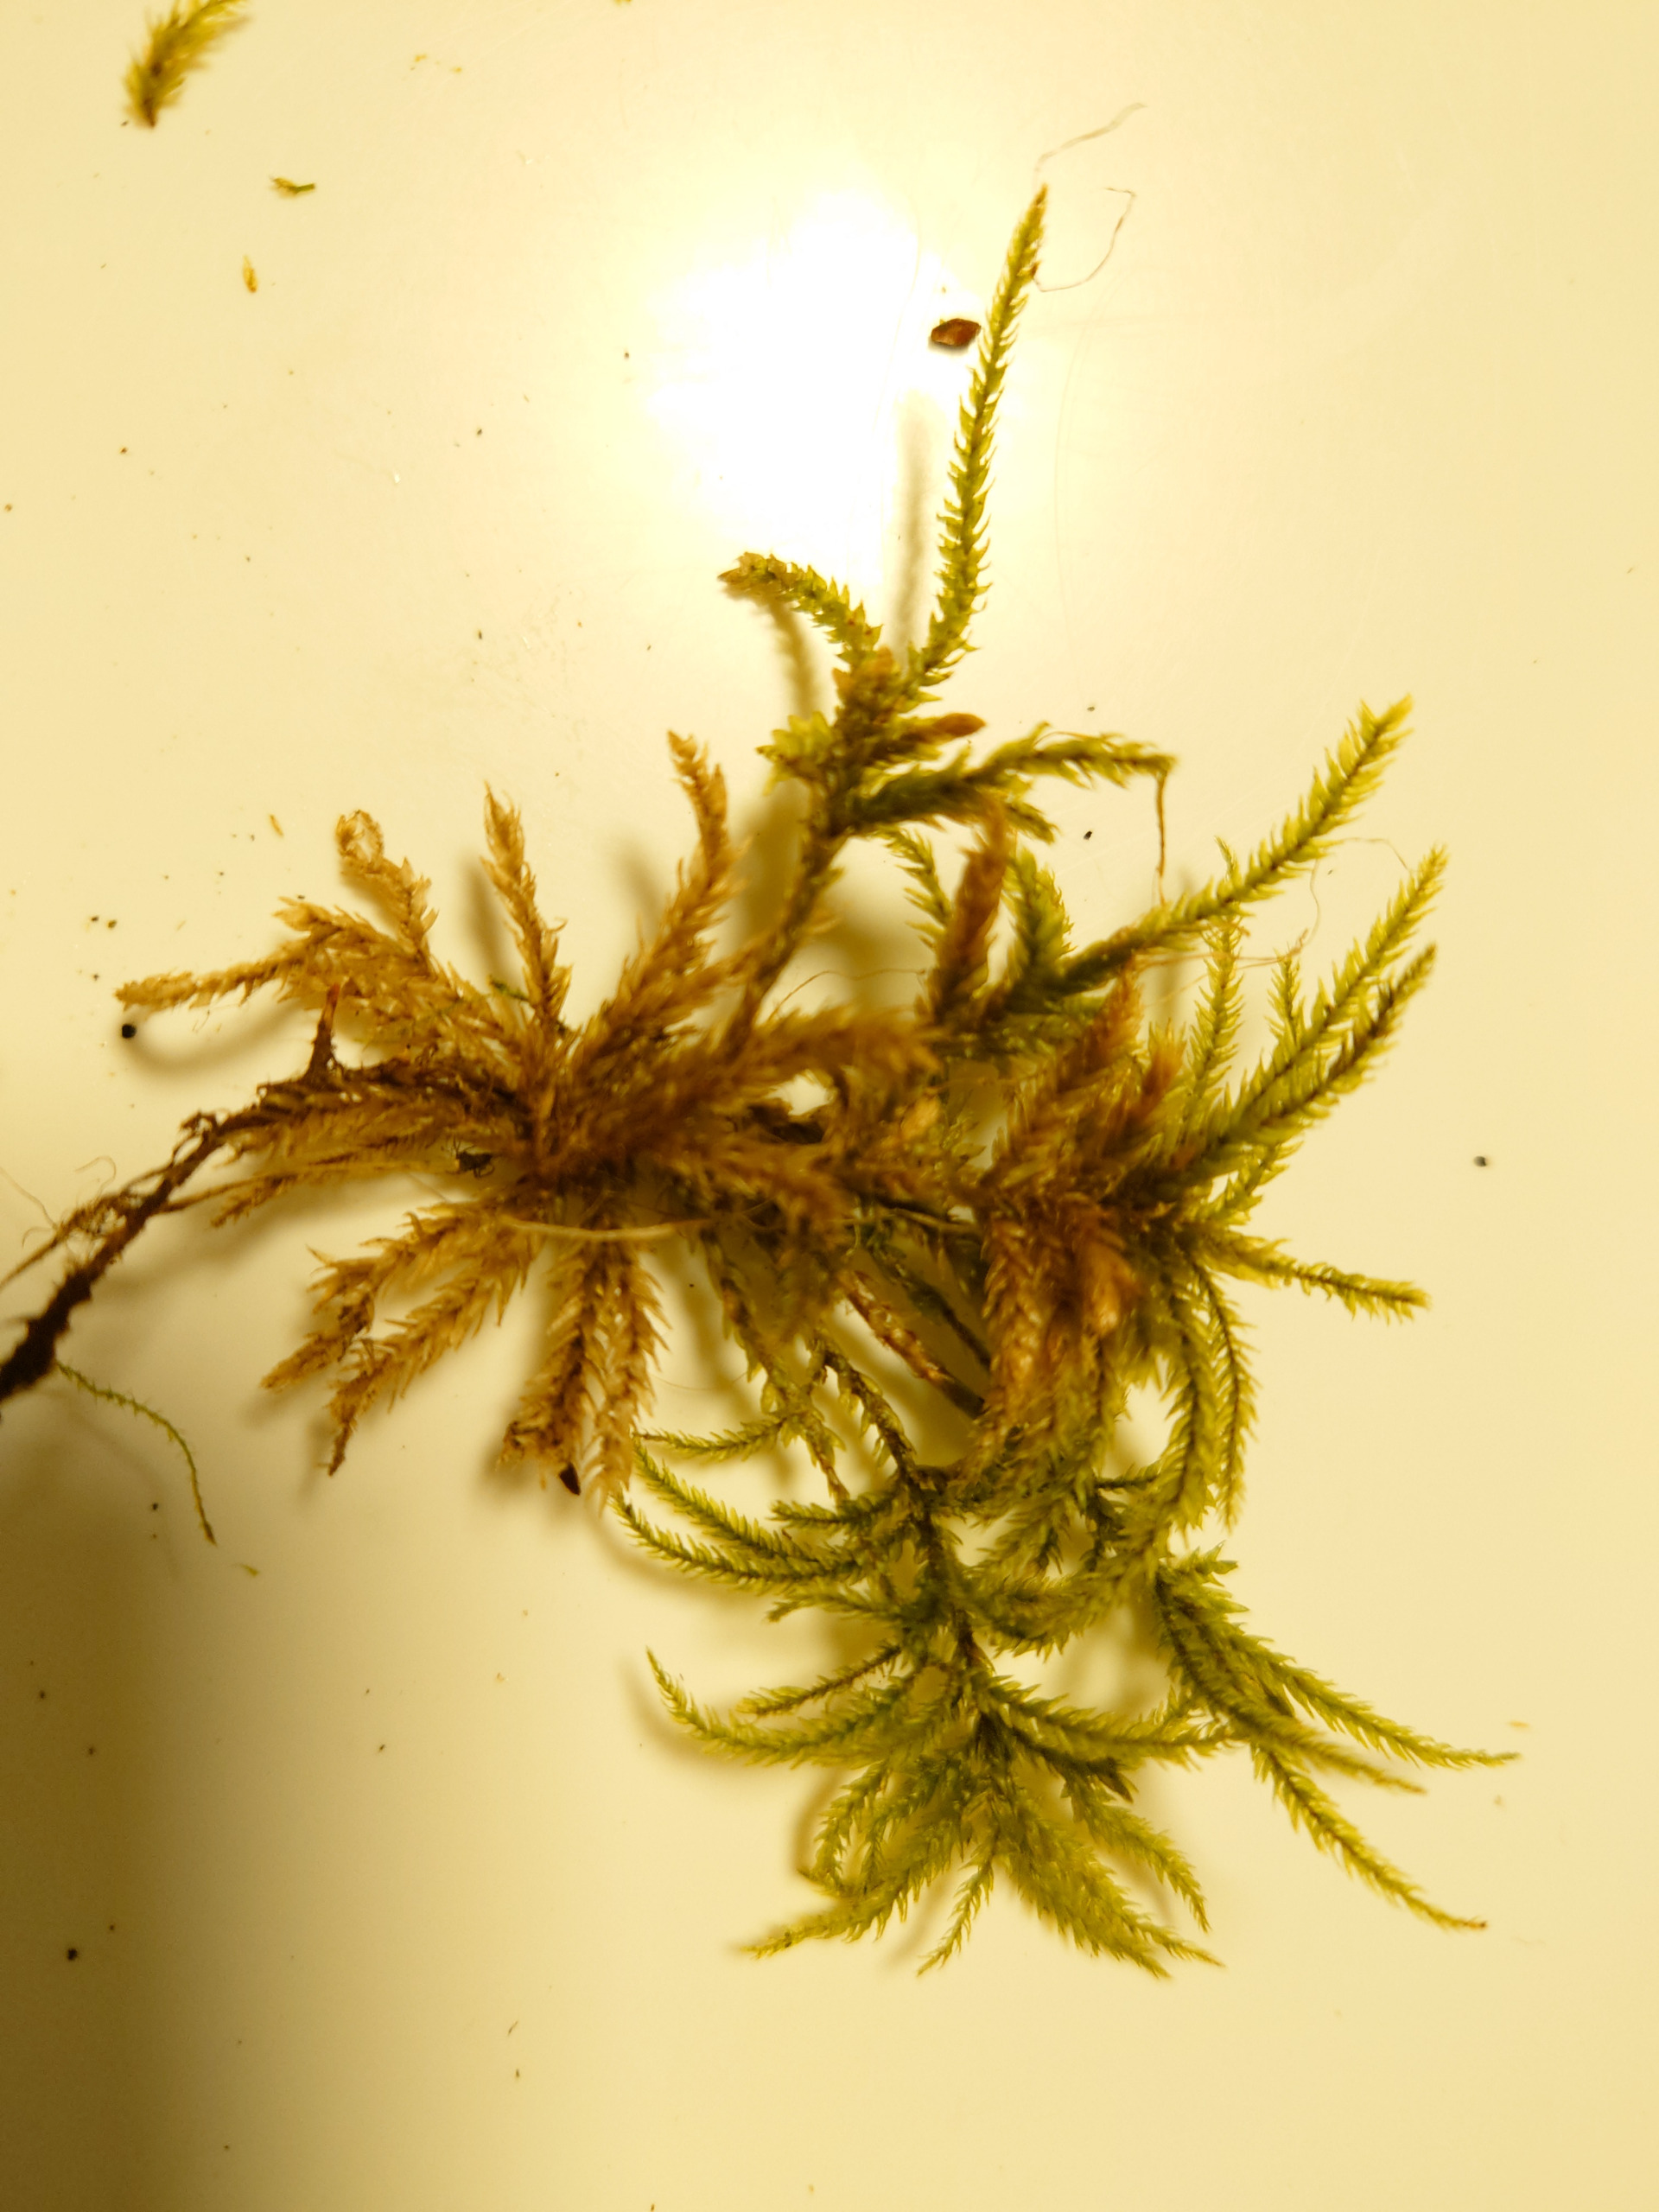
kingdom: Plantae
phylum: Bryophyta
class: Bryopsida
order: Hypnales
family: Climaciaceae
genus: Climacium
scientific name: Climacium dendroides
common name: Stor engkost
